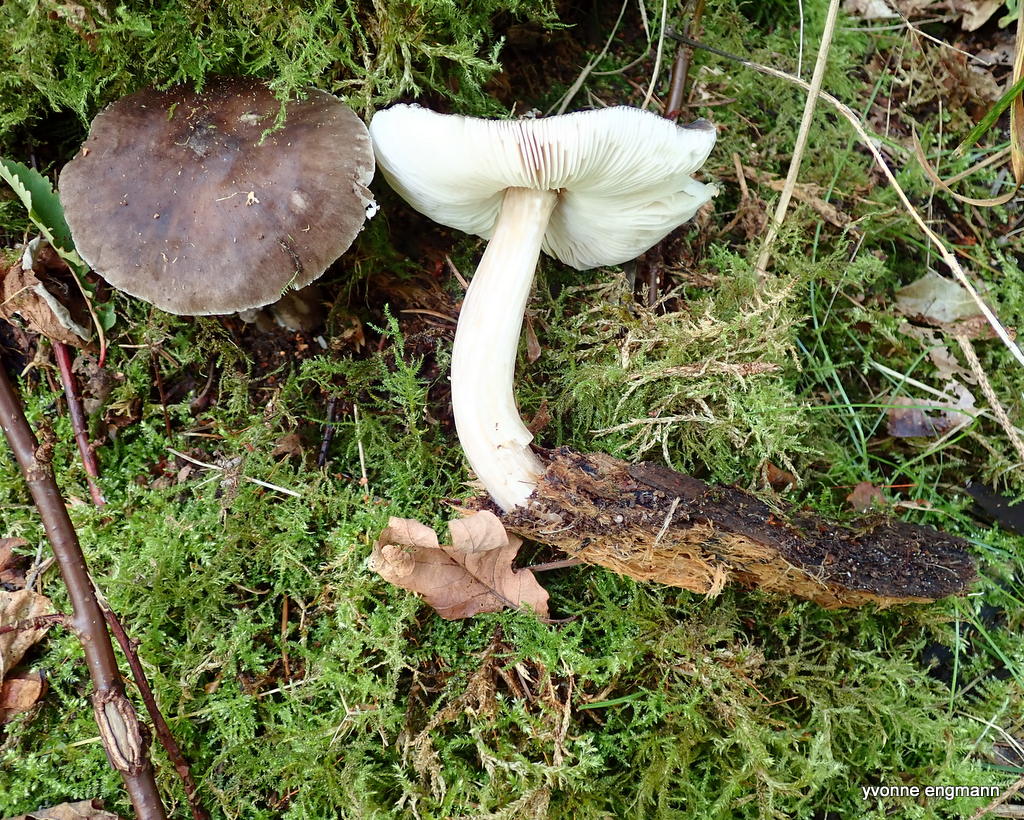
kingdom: Fungi
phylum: Basidiomycota
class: Agaricomycetes
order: Agaricales
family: Pluteaceae
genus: Pluteus
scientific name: Pluteus cervinus
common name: sodfarvet skærmhat
